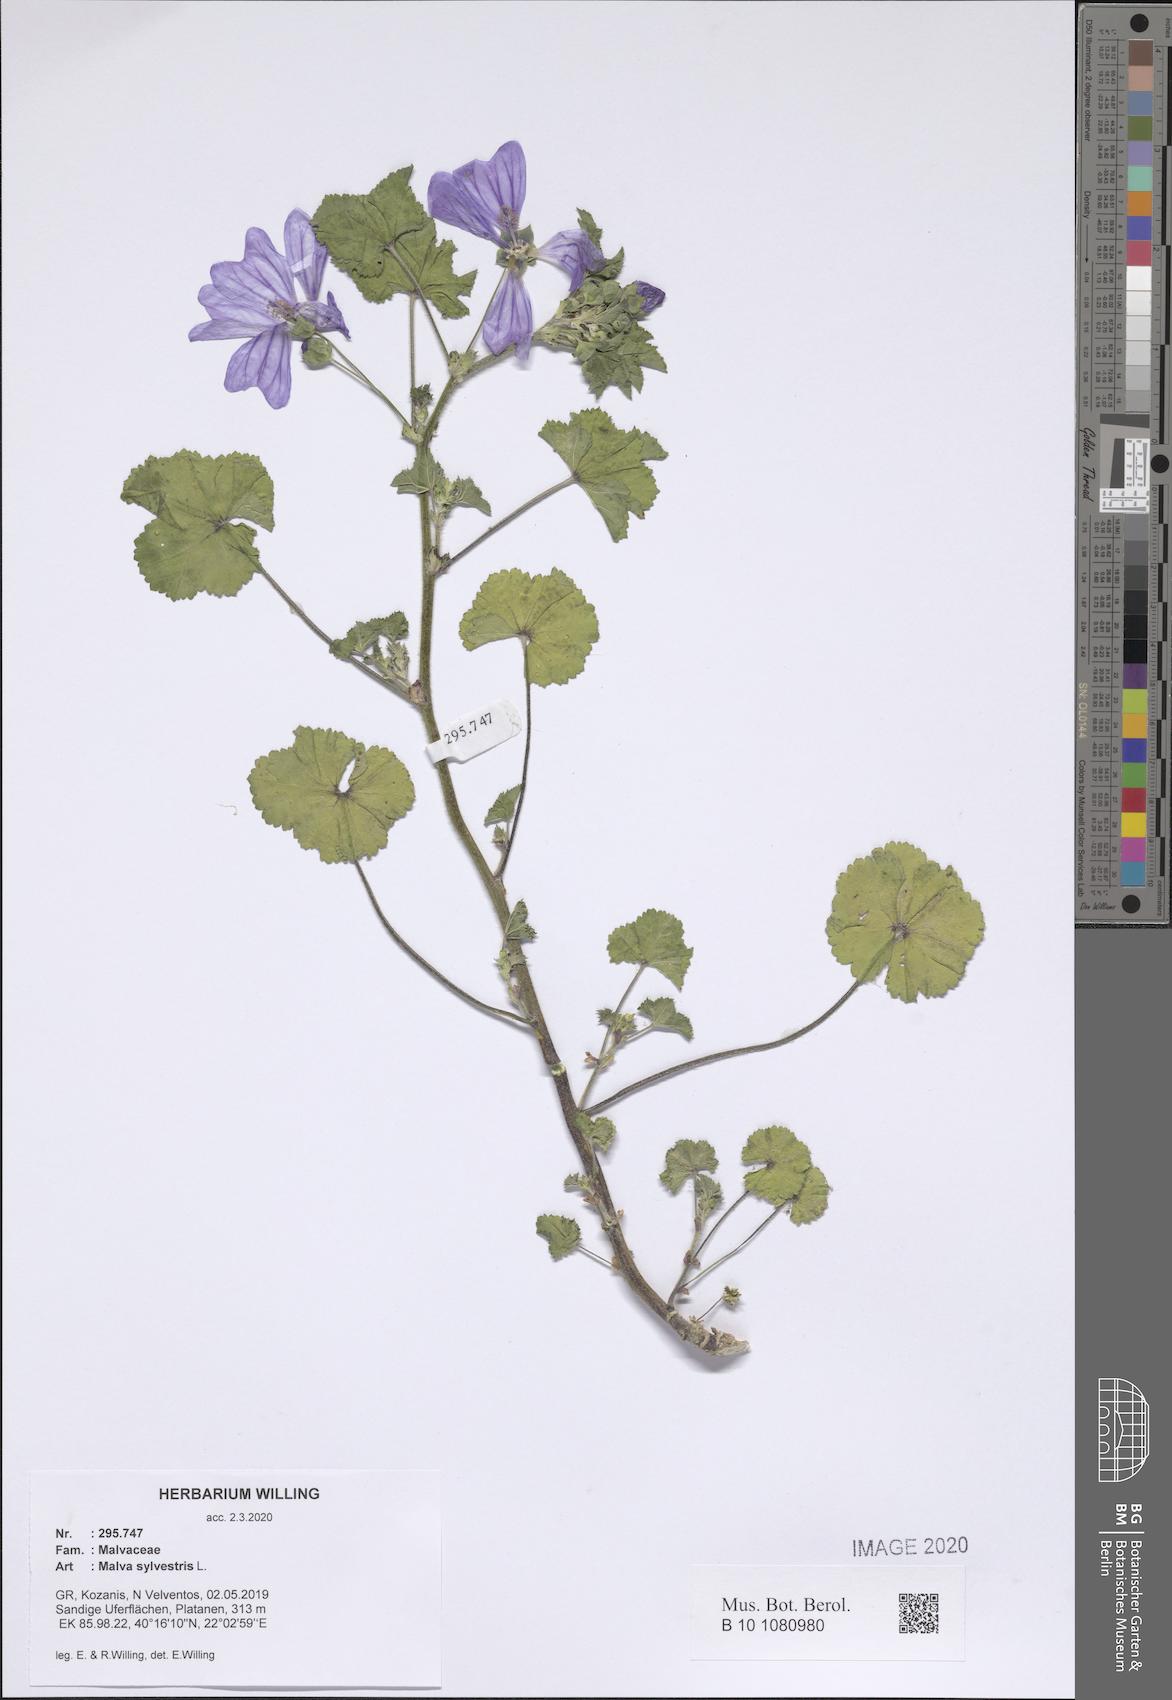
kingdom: Plantae
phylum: Tracheophyta
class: Magnoliopsida
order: Malvales
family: Malvaceae
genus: Malva
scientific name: Malva sylvestris
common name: Common mallow
